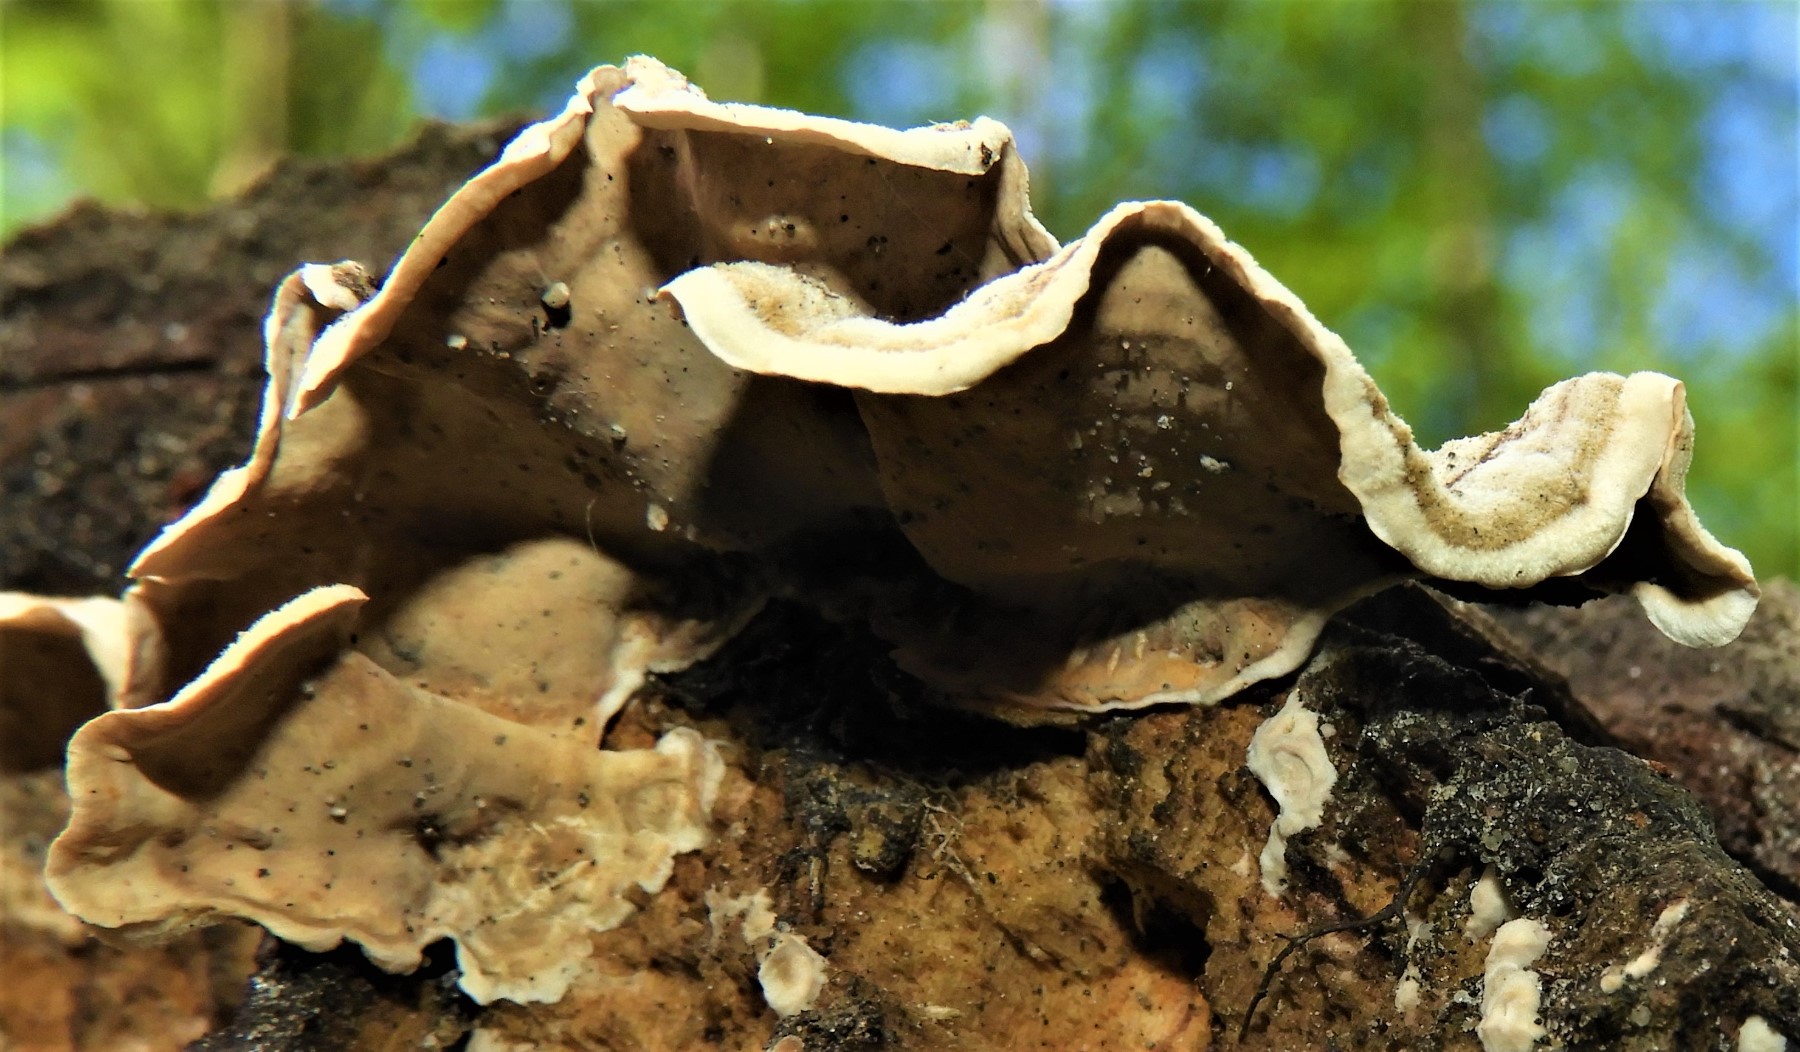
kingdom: Fungi
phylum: Basidiomycota
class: Agaricomycetes
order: Russulales
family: Stereaceae
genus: Stereum
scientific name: Stereum hirsutum
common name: håret lædersvamp
